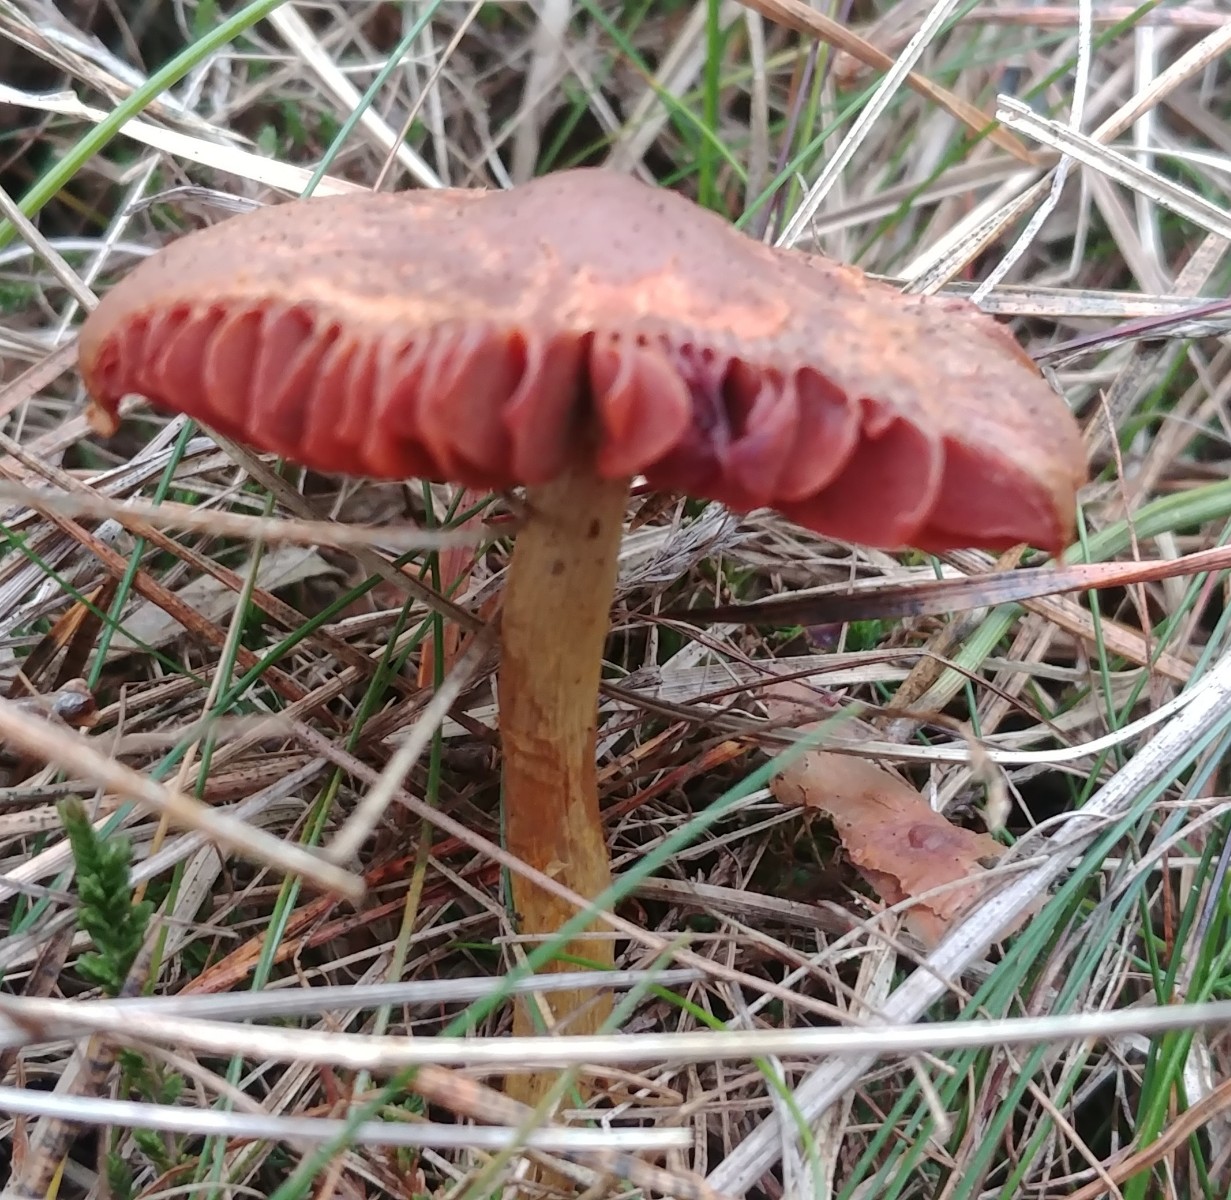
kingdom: Fungi
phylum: Basidiomycota
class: Agaricomycetes
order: Agaricales
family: Cortinariaceae
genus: Cortinarius
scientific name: Cortinarius
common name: cinnoberbladet slørhat
